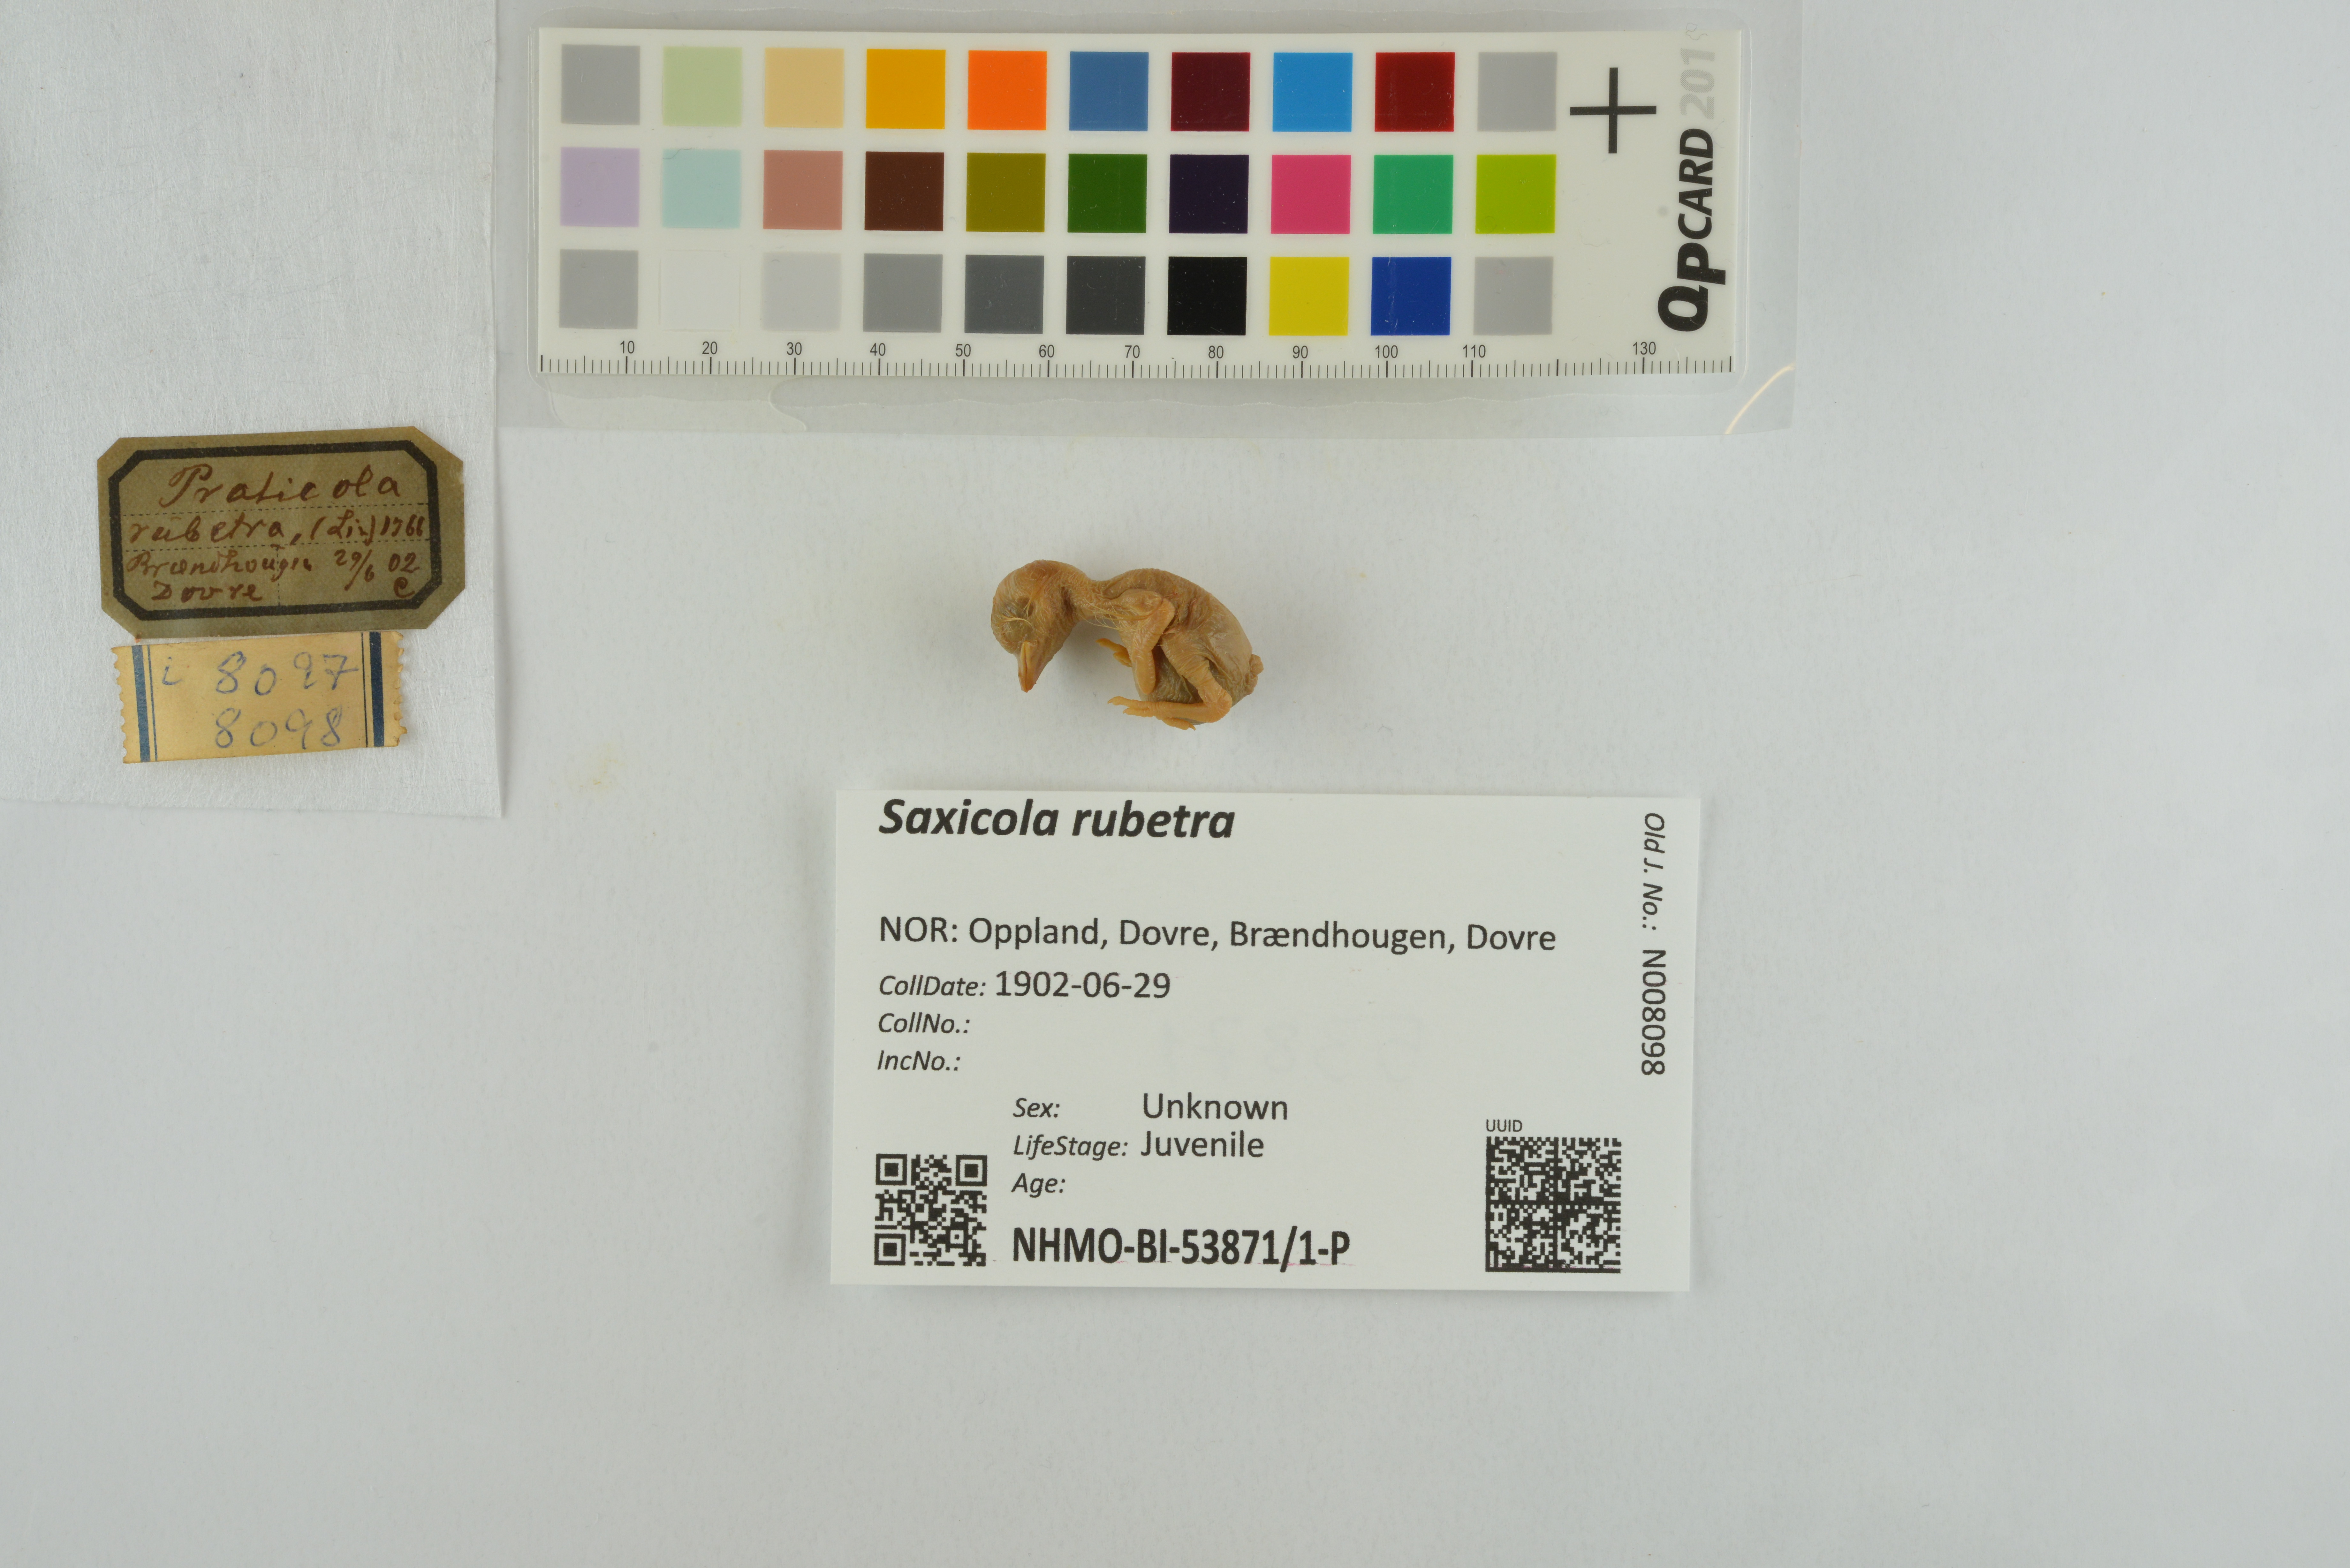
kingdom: Animalia
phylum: Chordata
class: Aves
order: Passeriformes
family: Muscicapidae
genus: Saxicola
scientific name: Saxicola rubetra
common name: Whinchat
